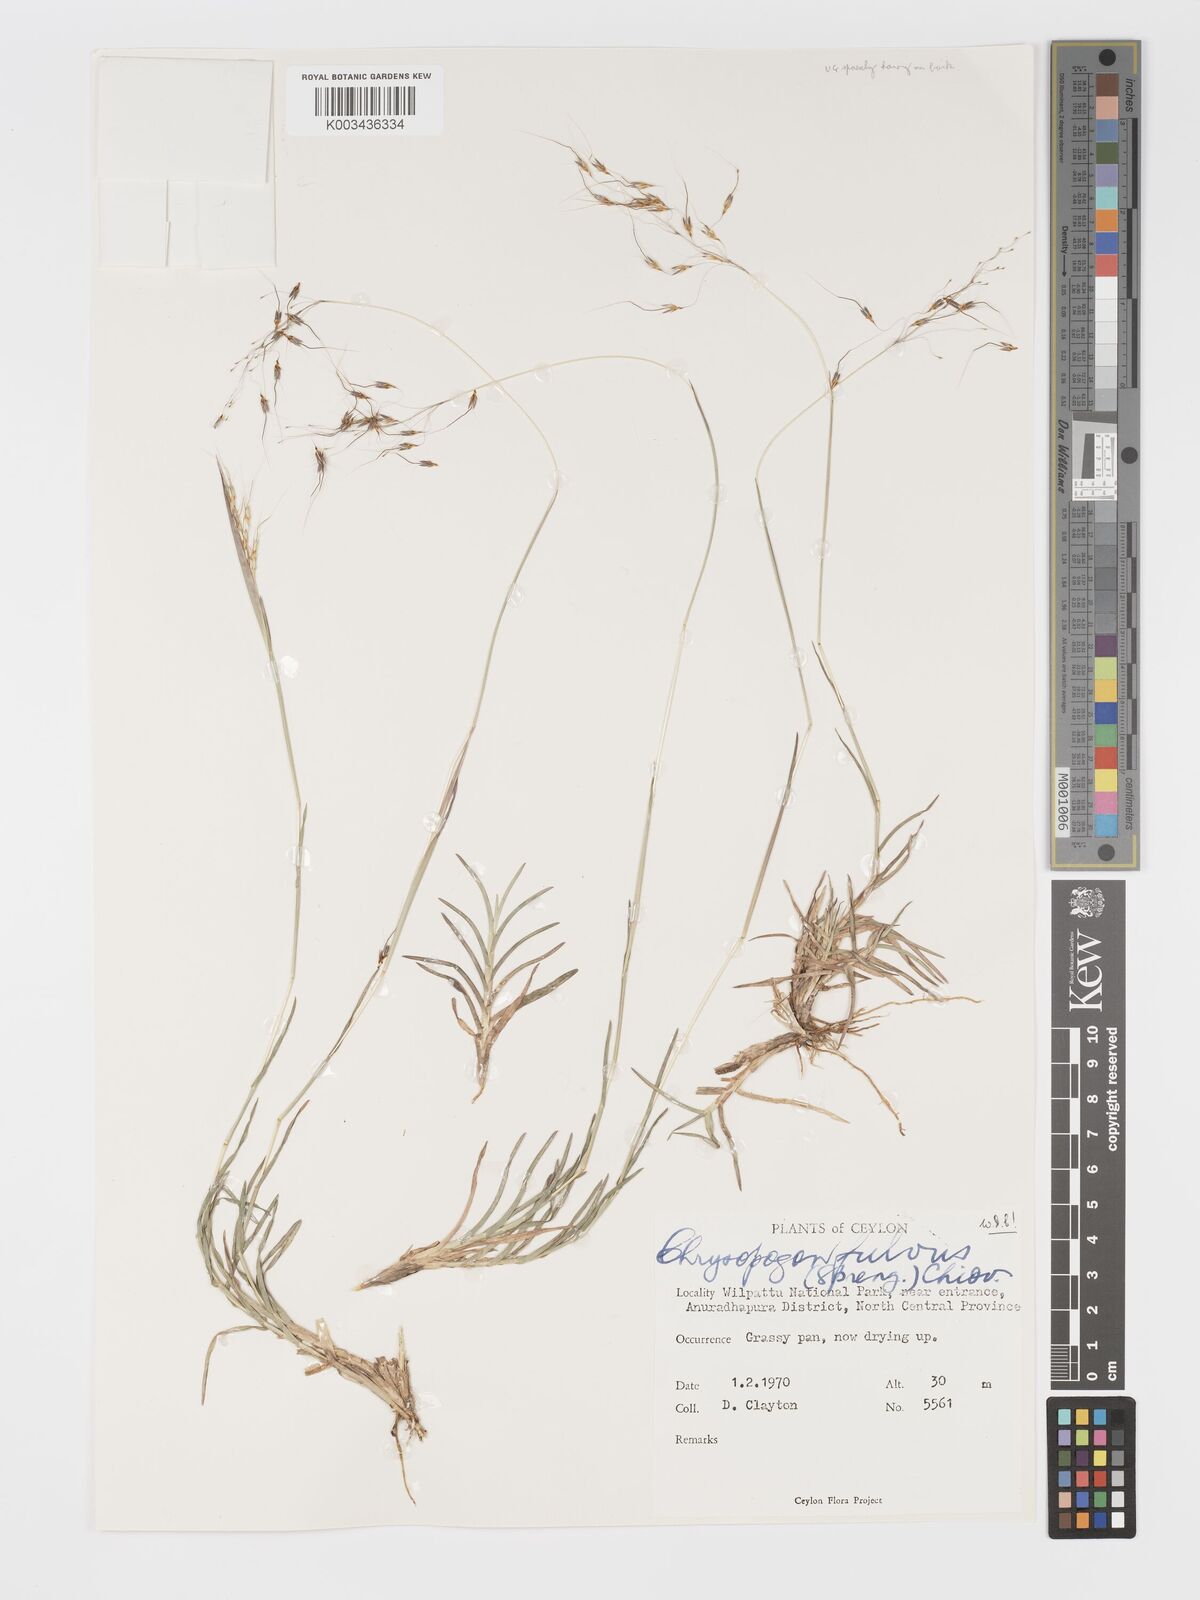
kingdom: Plantae
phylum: Tracheophyta
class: Liliopsida
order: Poales
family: Poaceae
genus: Chrysopogon
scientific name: Chrysopogon fulvus
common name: Red false beardgrass
